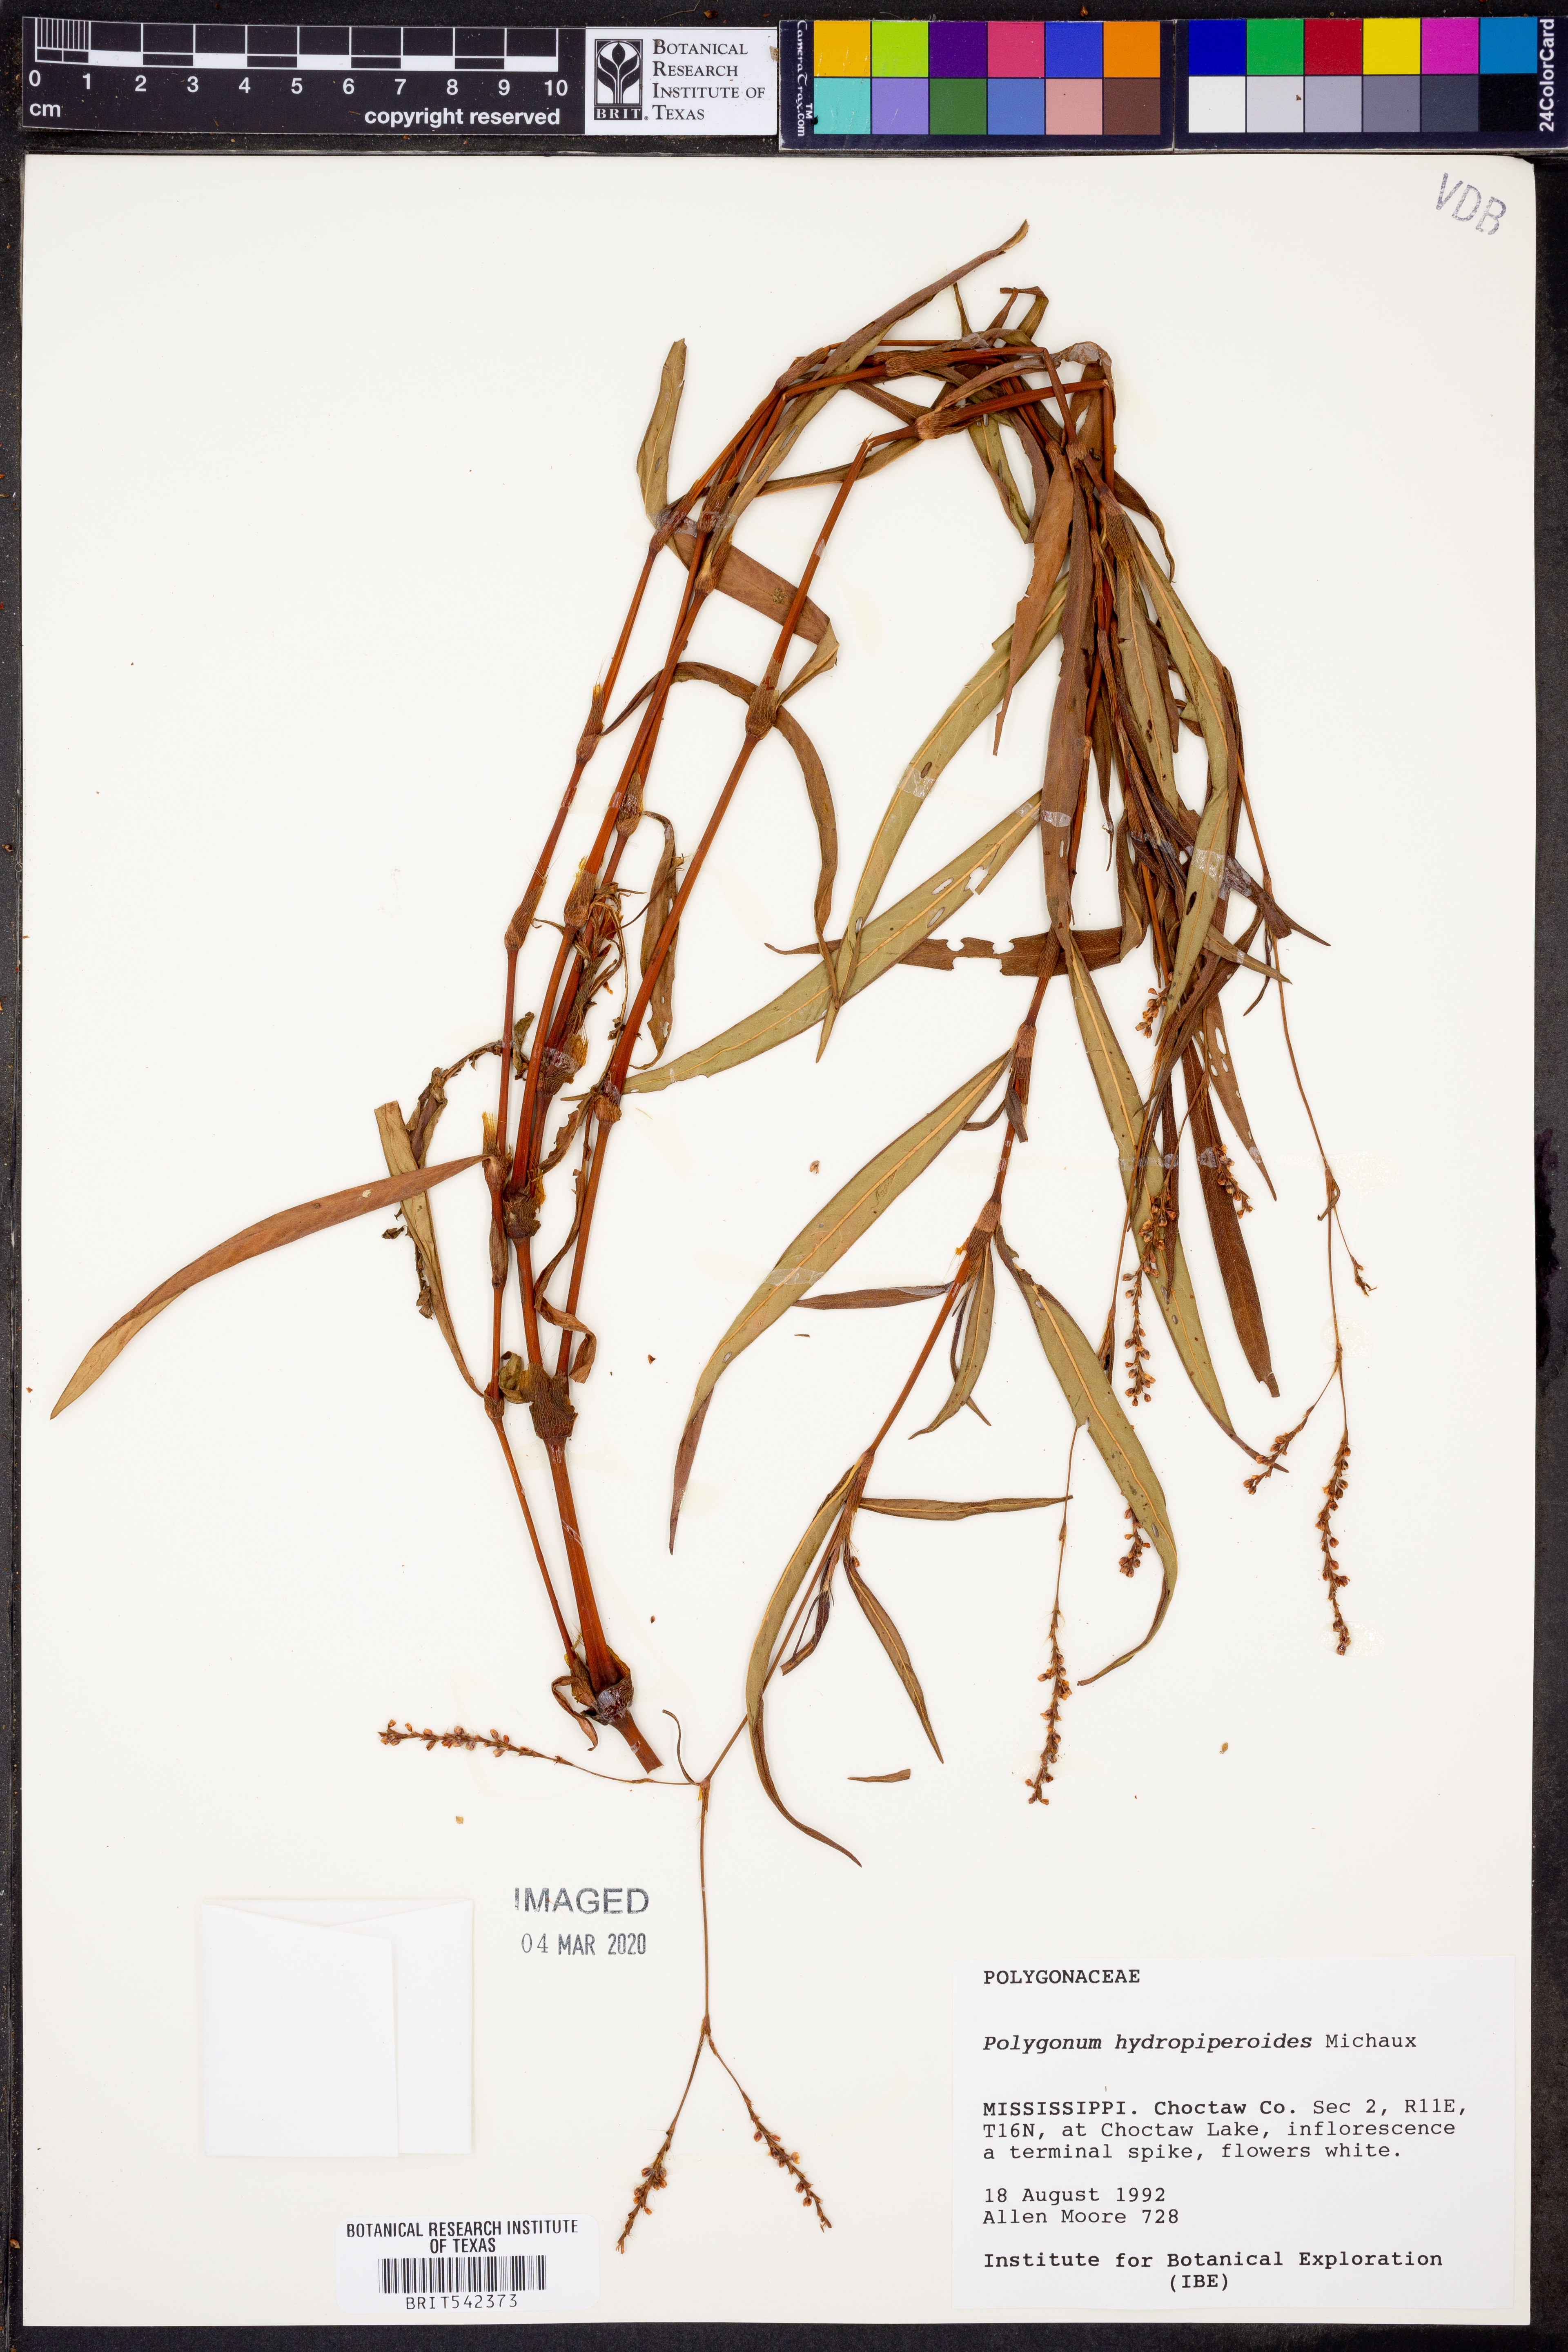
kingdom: Plantae
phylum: Tracheophyta
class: Magnoliopsida
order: Caryophyllales
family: Polygonaceae
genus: Persicaria
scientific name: Persicaria hydropiperoides
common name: Swamp smartweed
